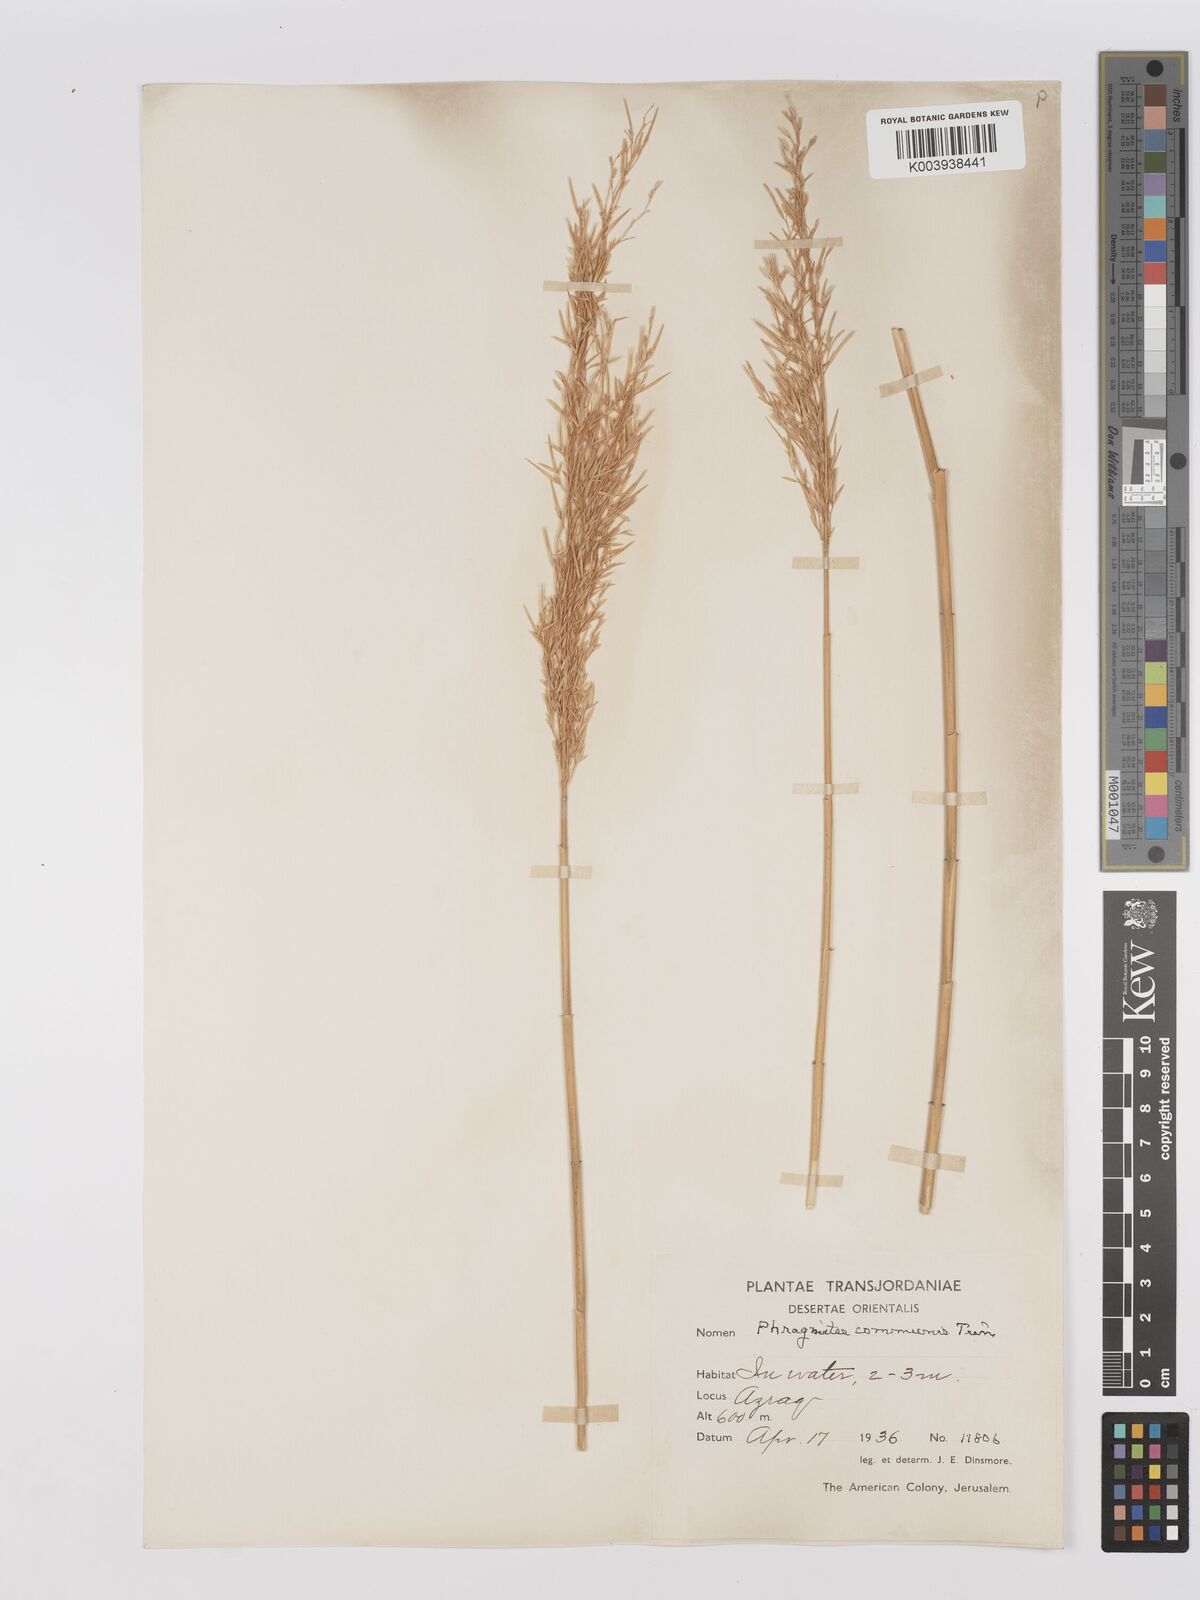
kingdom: Plantae
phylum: Tracheophyta
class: Liliopsida
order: Poales
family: Poaceae
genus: Phragmites
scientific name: Phragmites australis
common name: Common reed
